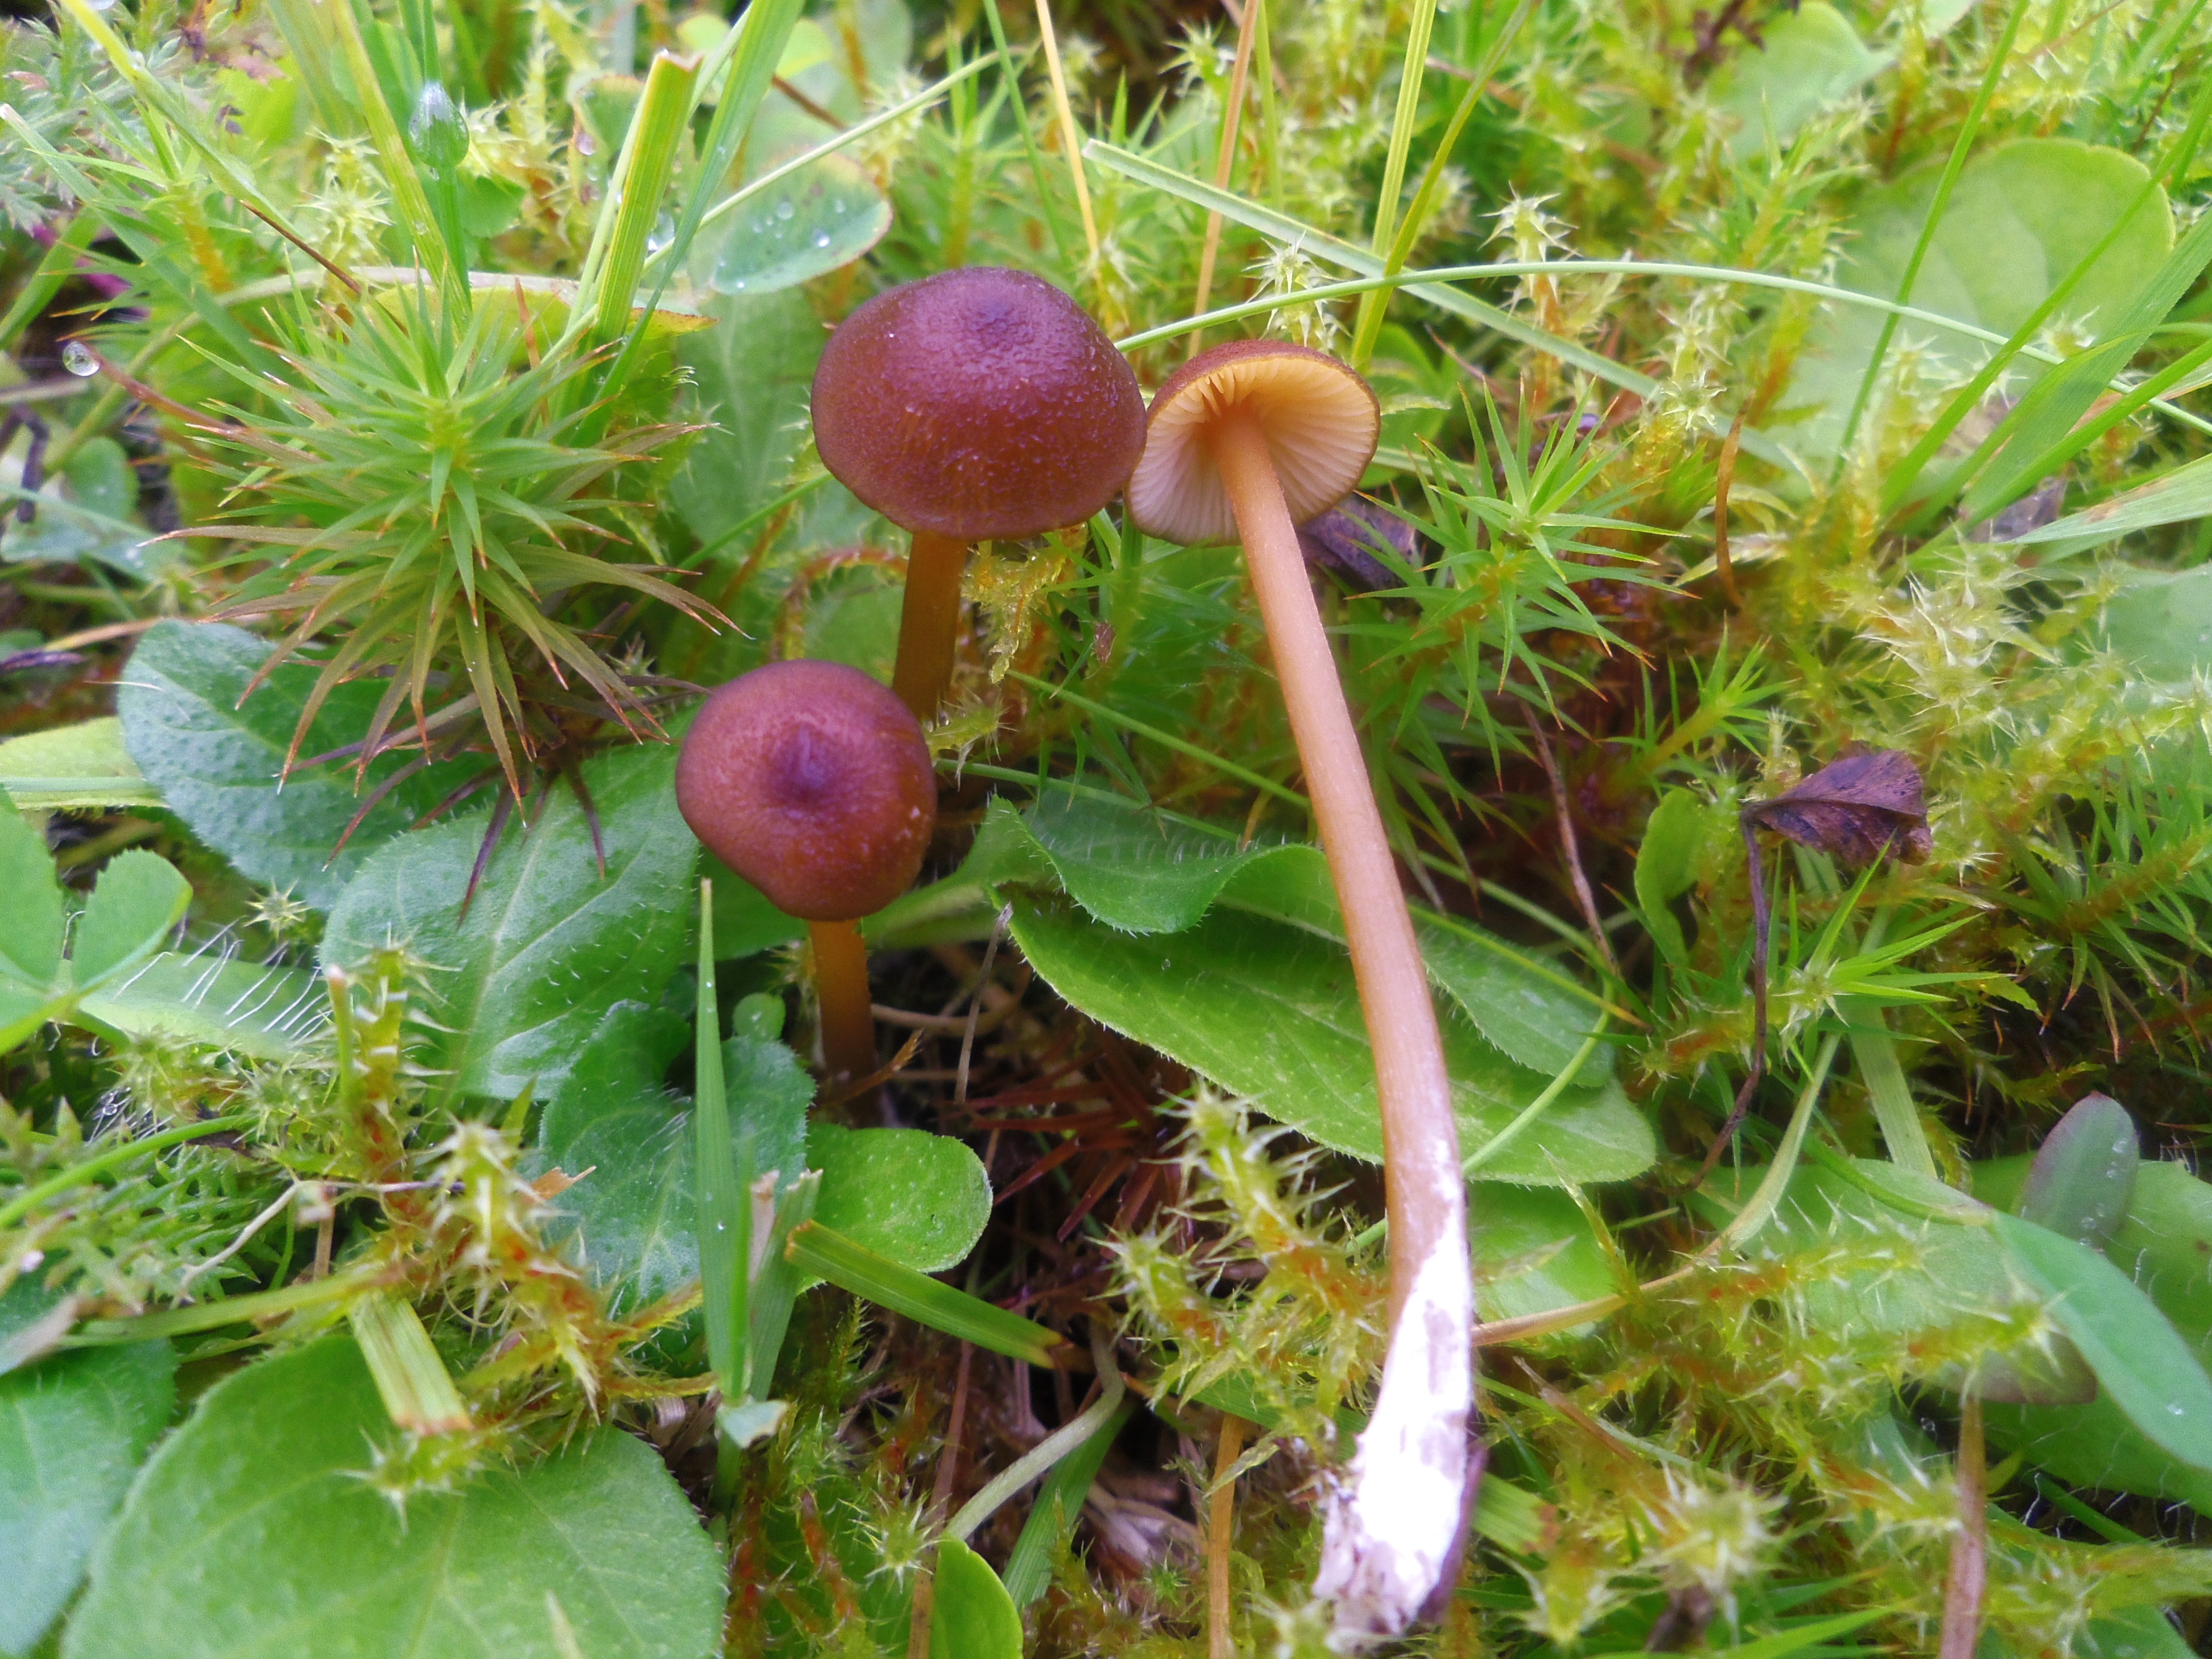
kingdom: Fungi
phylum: Basidiomycota
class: Agaricomycetes
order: Agaricales
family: Omphalotaceae
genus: Gymnopus
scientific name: Gymnopus ocior
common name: Spring toughshank
